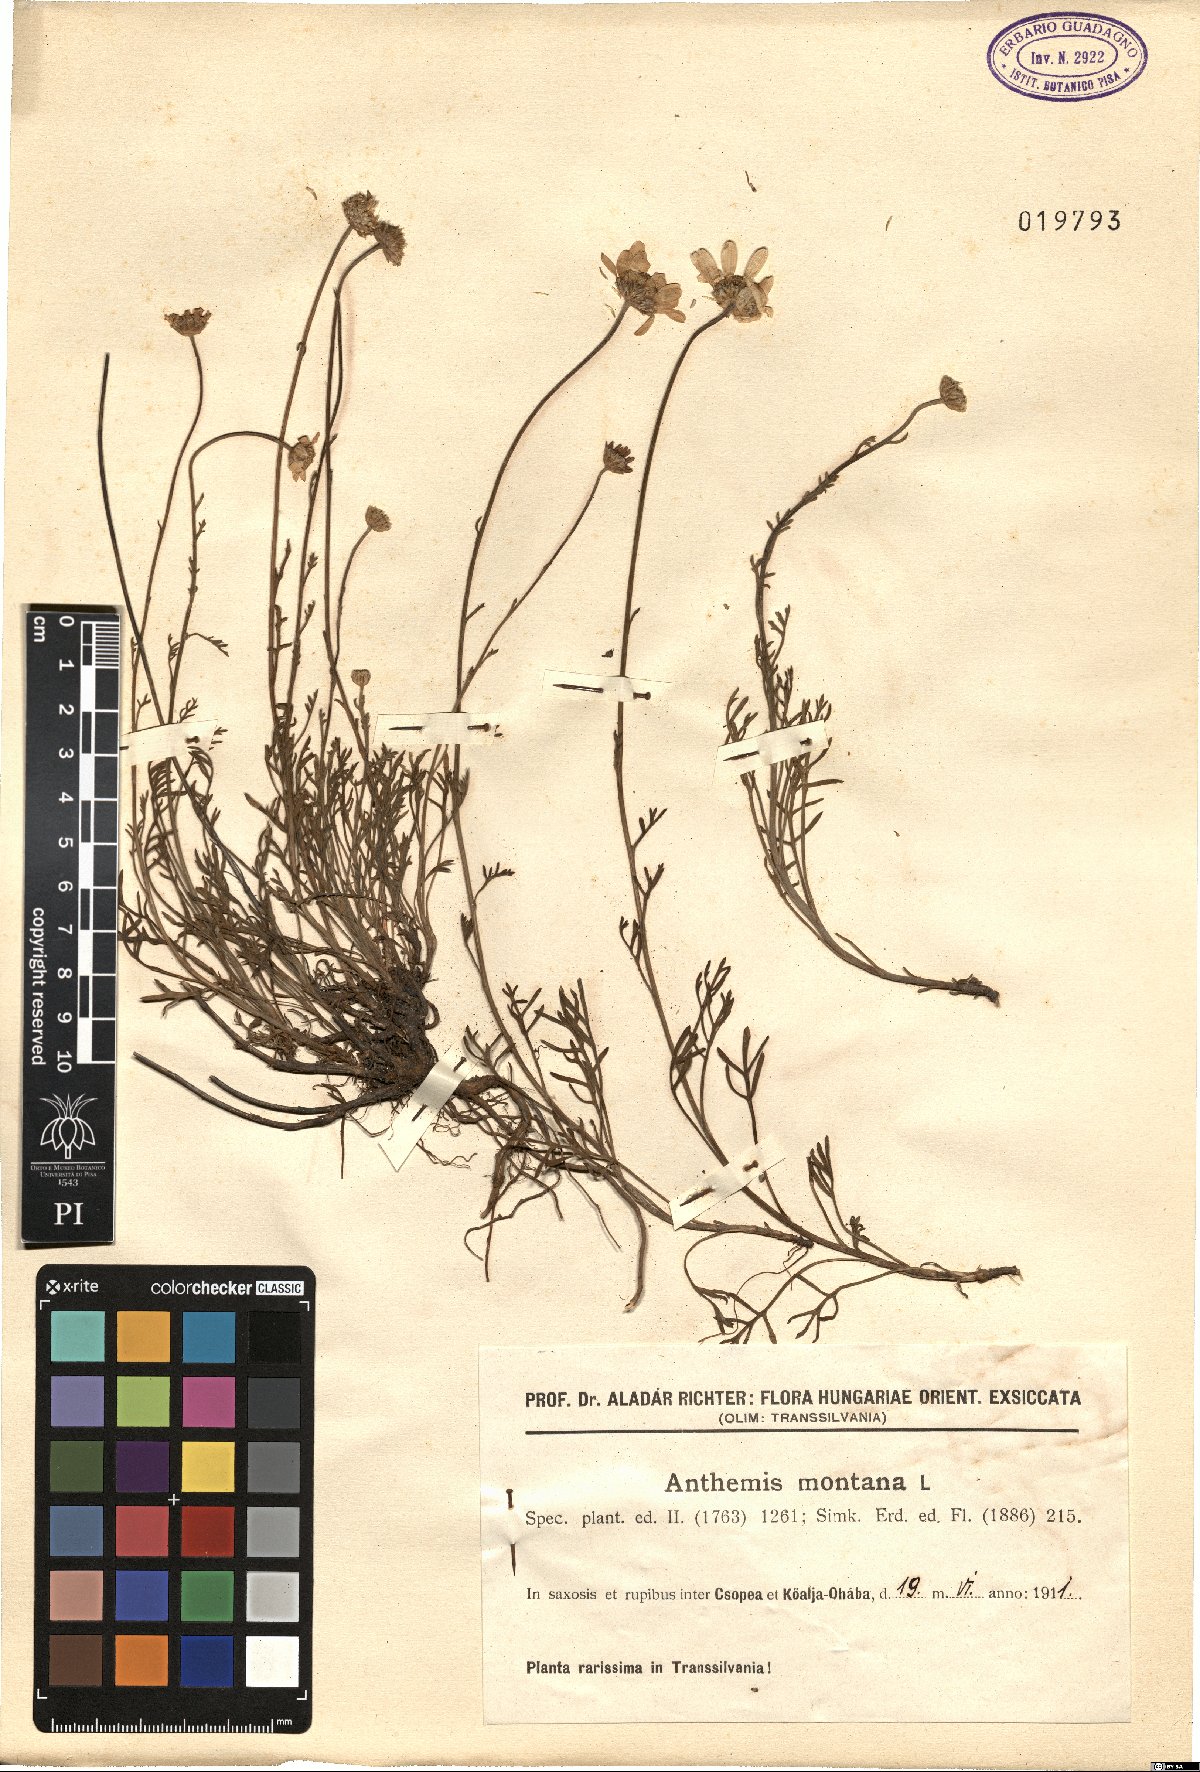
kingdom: Plantae
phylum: Tracheophyta
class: Magnoliopsida
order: Asterales
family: Asteraceae
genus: Anthemis
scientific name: Anthemis cretica
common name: Mountain dog-daisy
